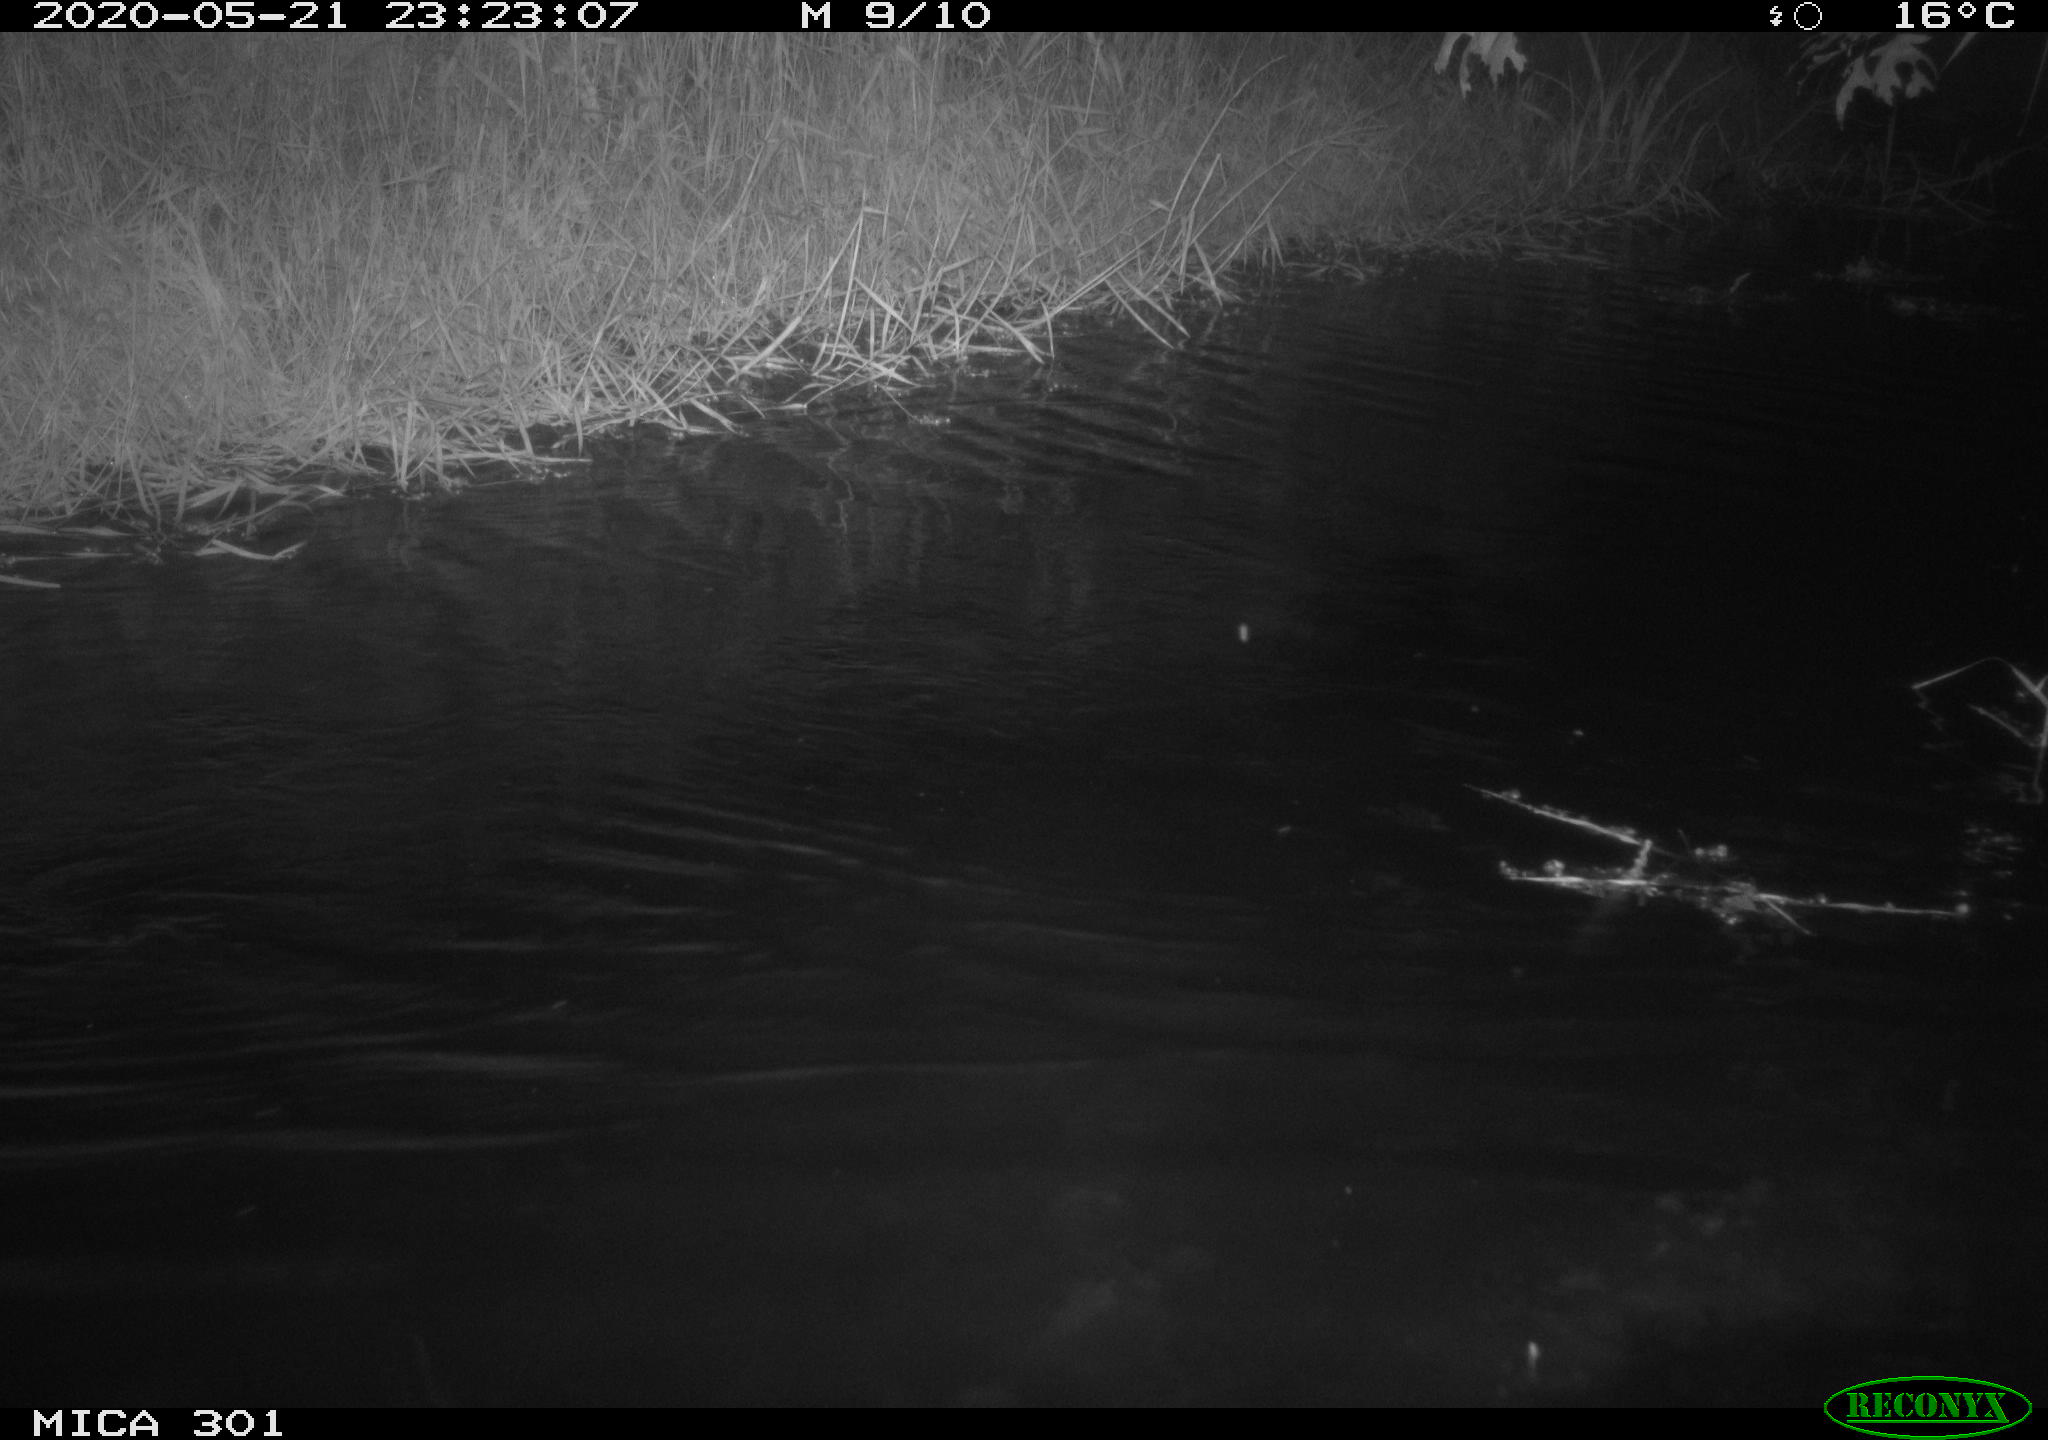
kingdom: Animalia
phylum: Chordata
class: Mammalia
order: Rodentia
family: Castoridae
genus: Castor
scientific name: Castor fiber
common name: Eurasian beaver
